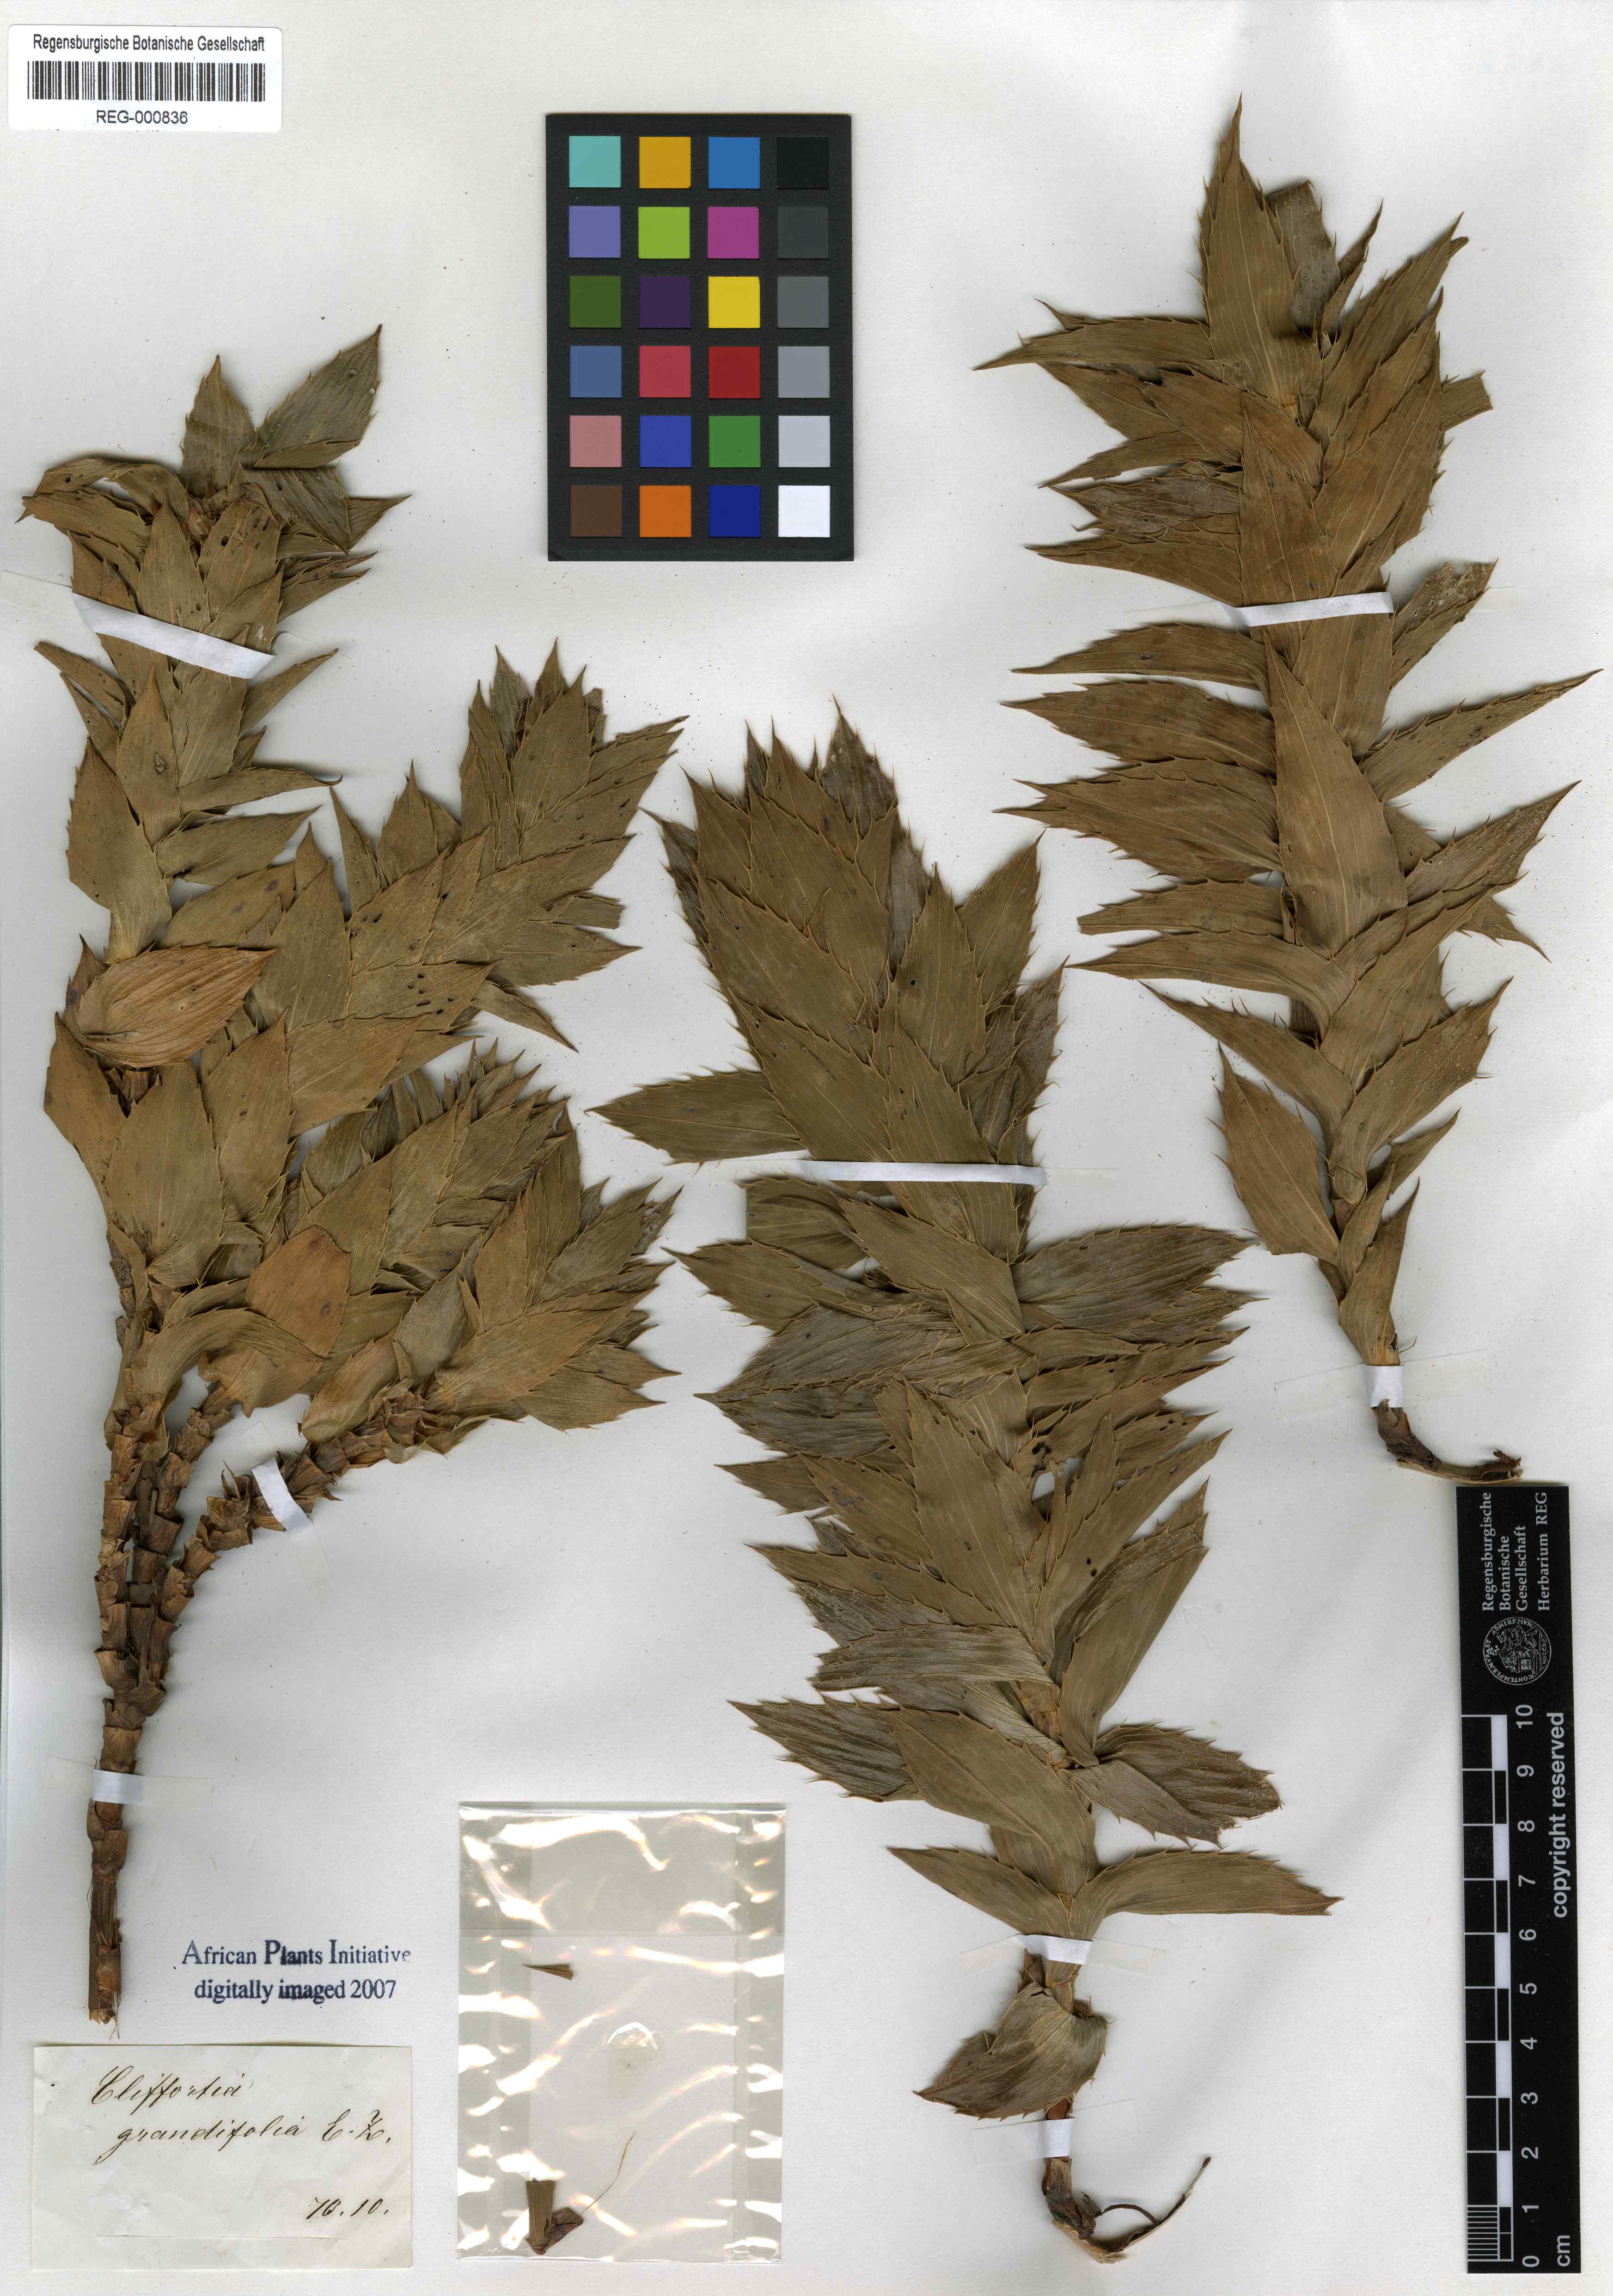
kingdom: Plantae
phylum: Tracheophyta
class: Magnoliopsida
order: Rosales
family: Rosaceae
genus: Cliffortia
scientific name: Cliffortia grandifolia
